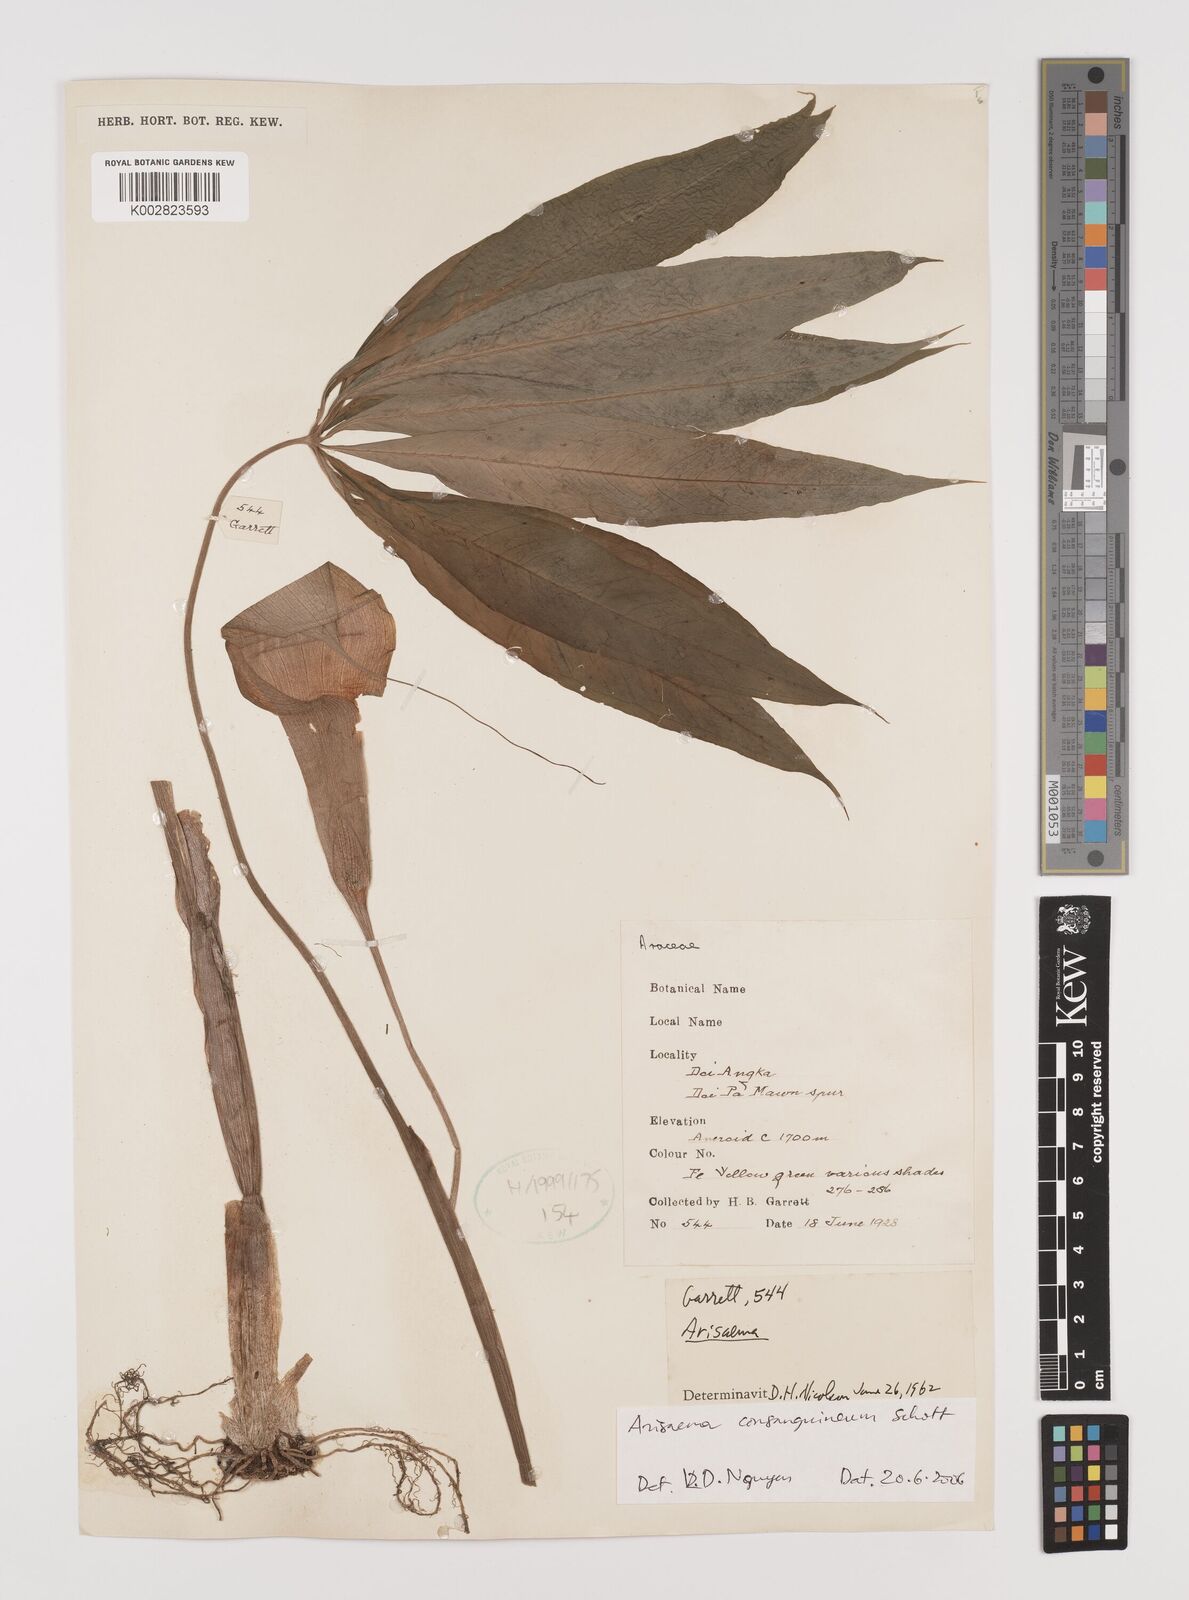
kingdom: Plantae
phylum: Tracheophyta
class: Liliopsida
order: Alismatales
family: Araceae
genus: Arisaema
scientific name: Arisaema consanguineum
